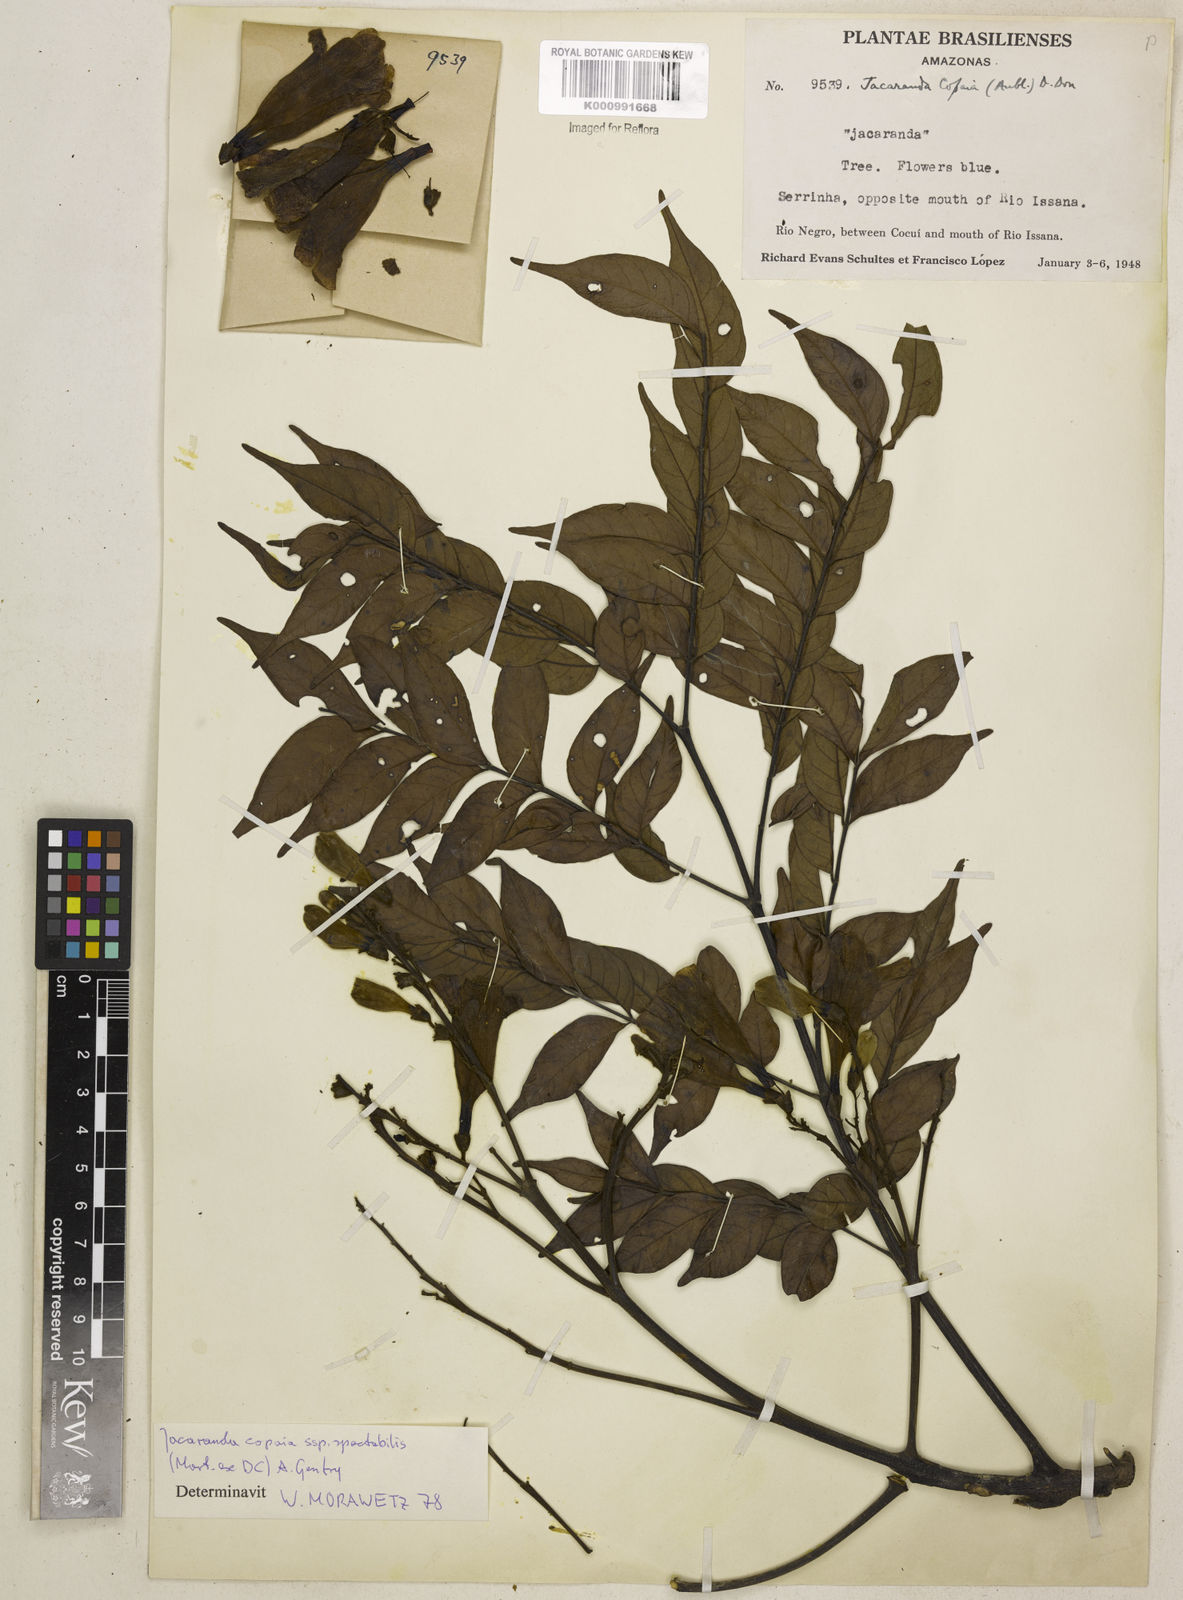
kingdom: Plantae
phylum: Tracheophyta
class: Magnoliopsida
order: Lamiales
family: Bignoniaceae
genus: Jacaranda
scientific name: Jacaranda copaia
